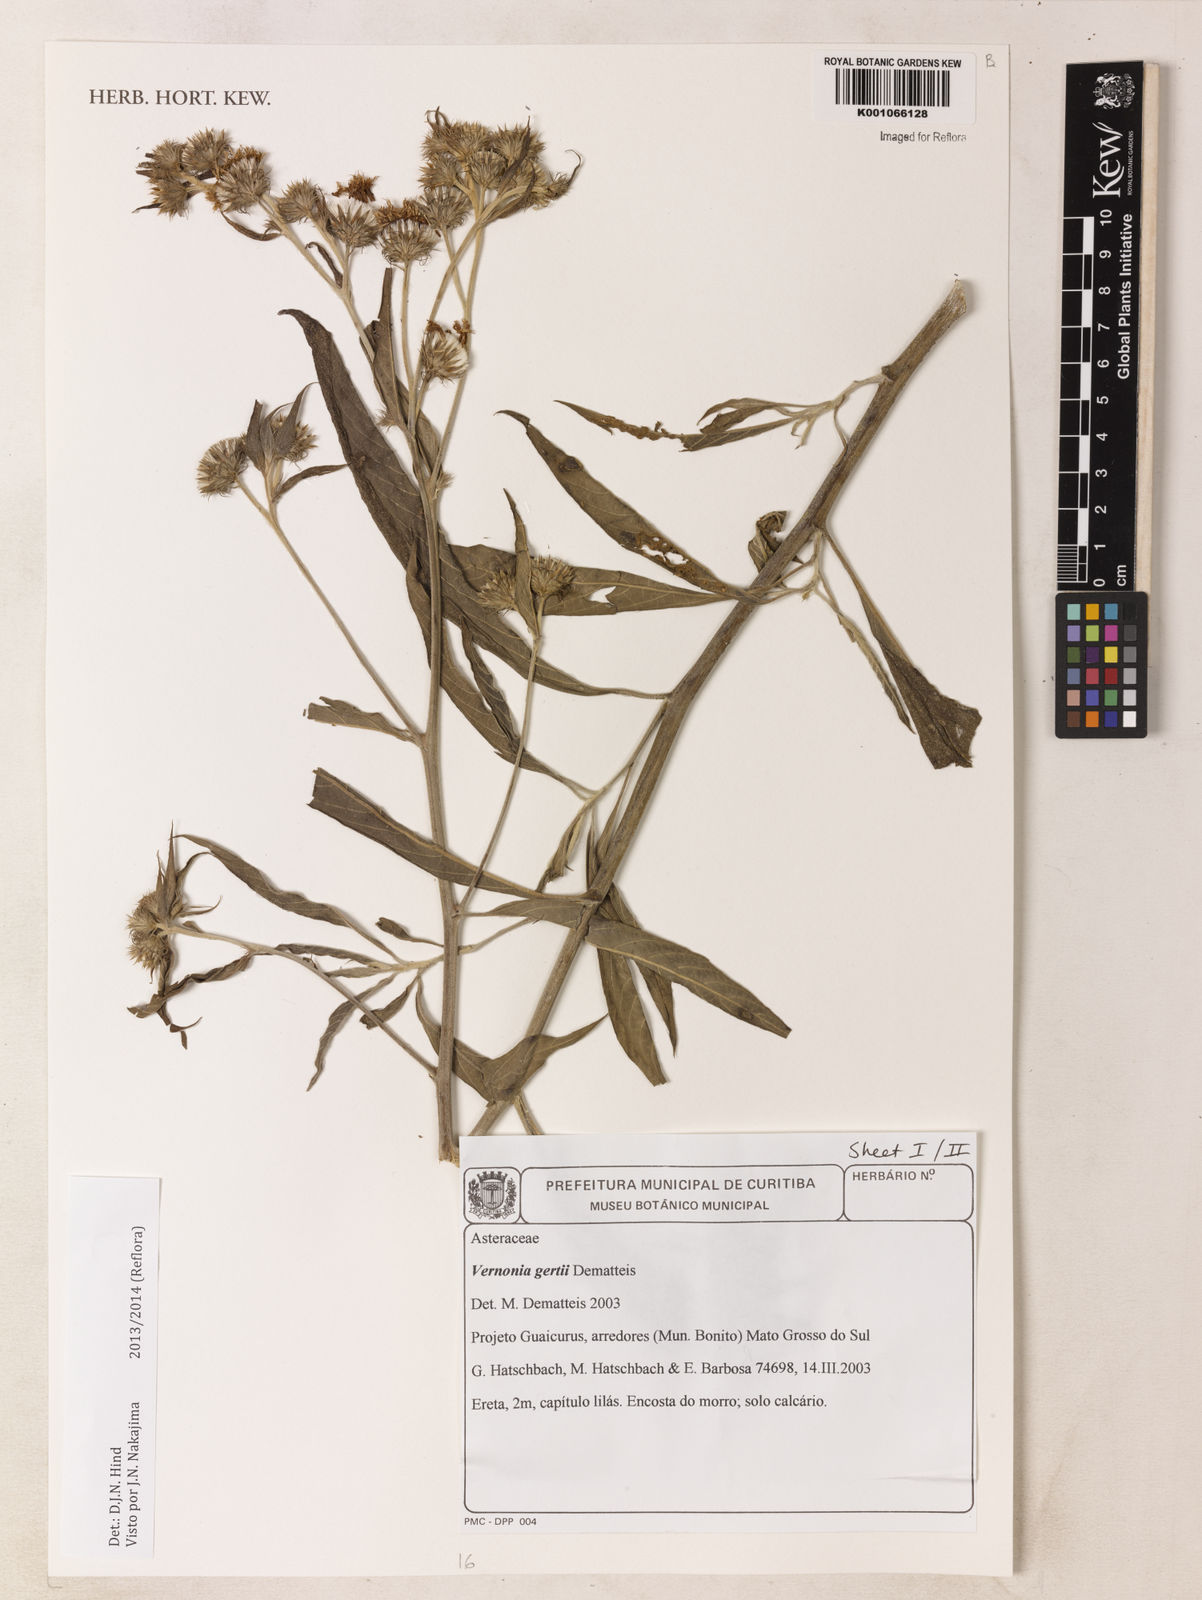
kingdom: Plantae
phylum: Tracheophyta
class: Magnoliopsida
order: Asterales
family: Asteraceae
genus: Vernonia
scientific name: Vernonia gertii
